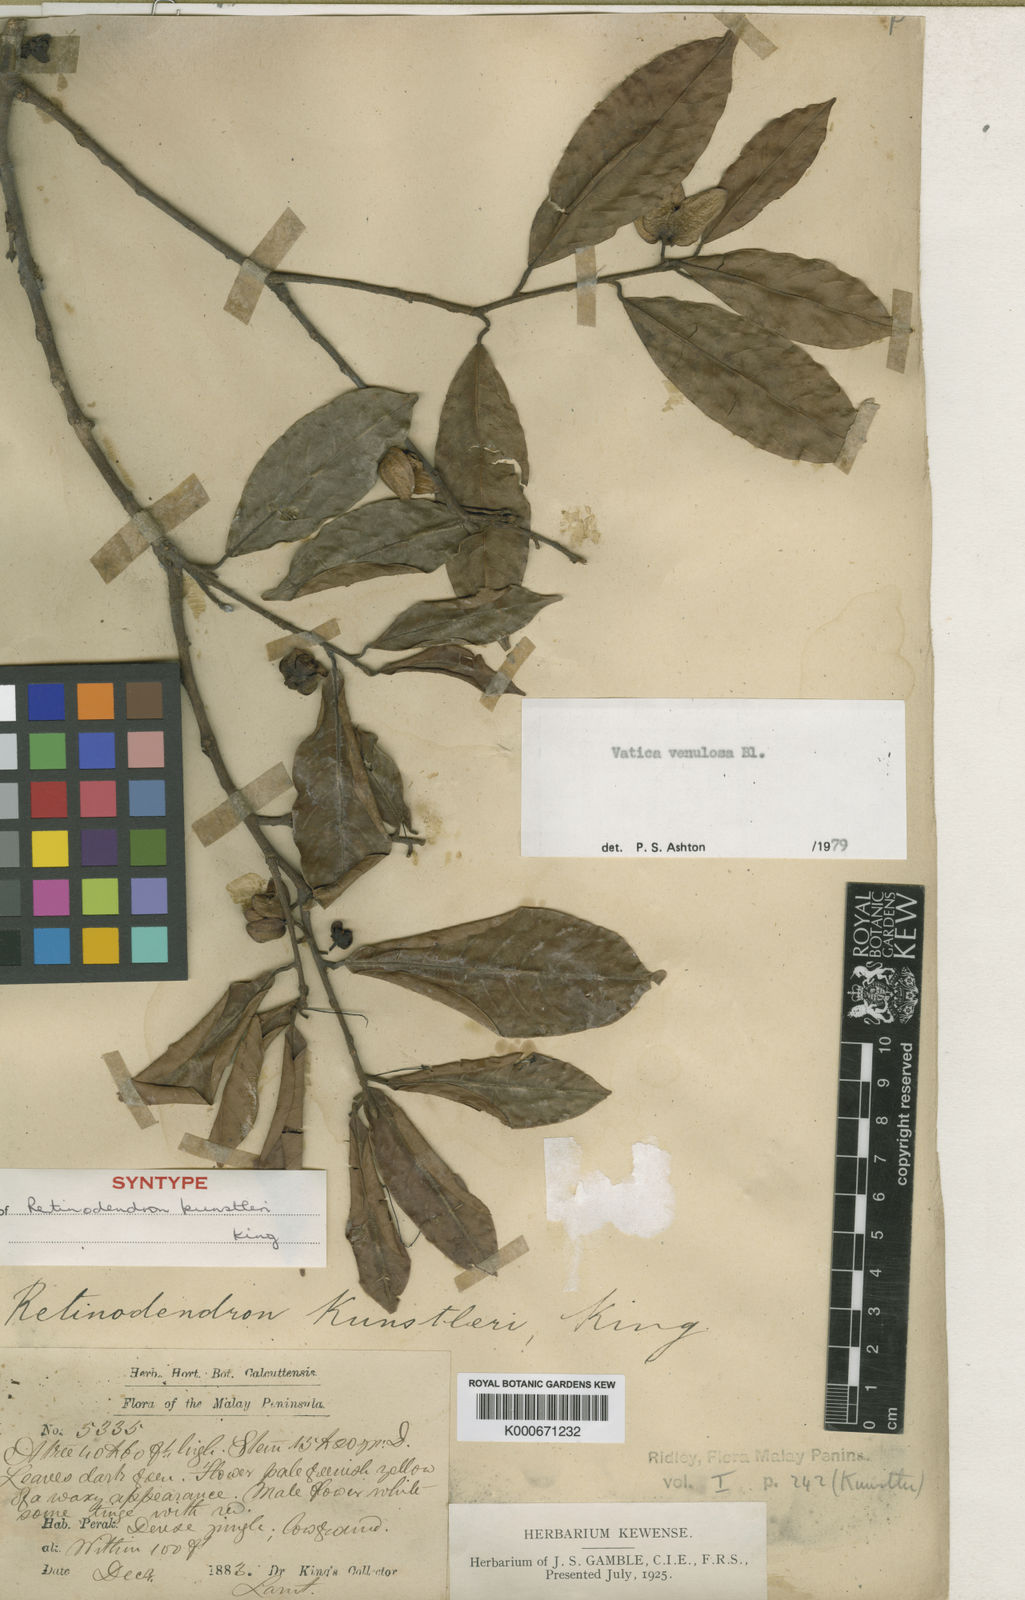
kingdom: Plantae
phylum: Tracheophyta
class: Magnoliopsida
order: Malvales
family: Dipterocarpaceae
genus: Vatica
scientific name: Vatica venulosa
